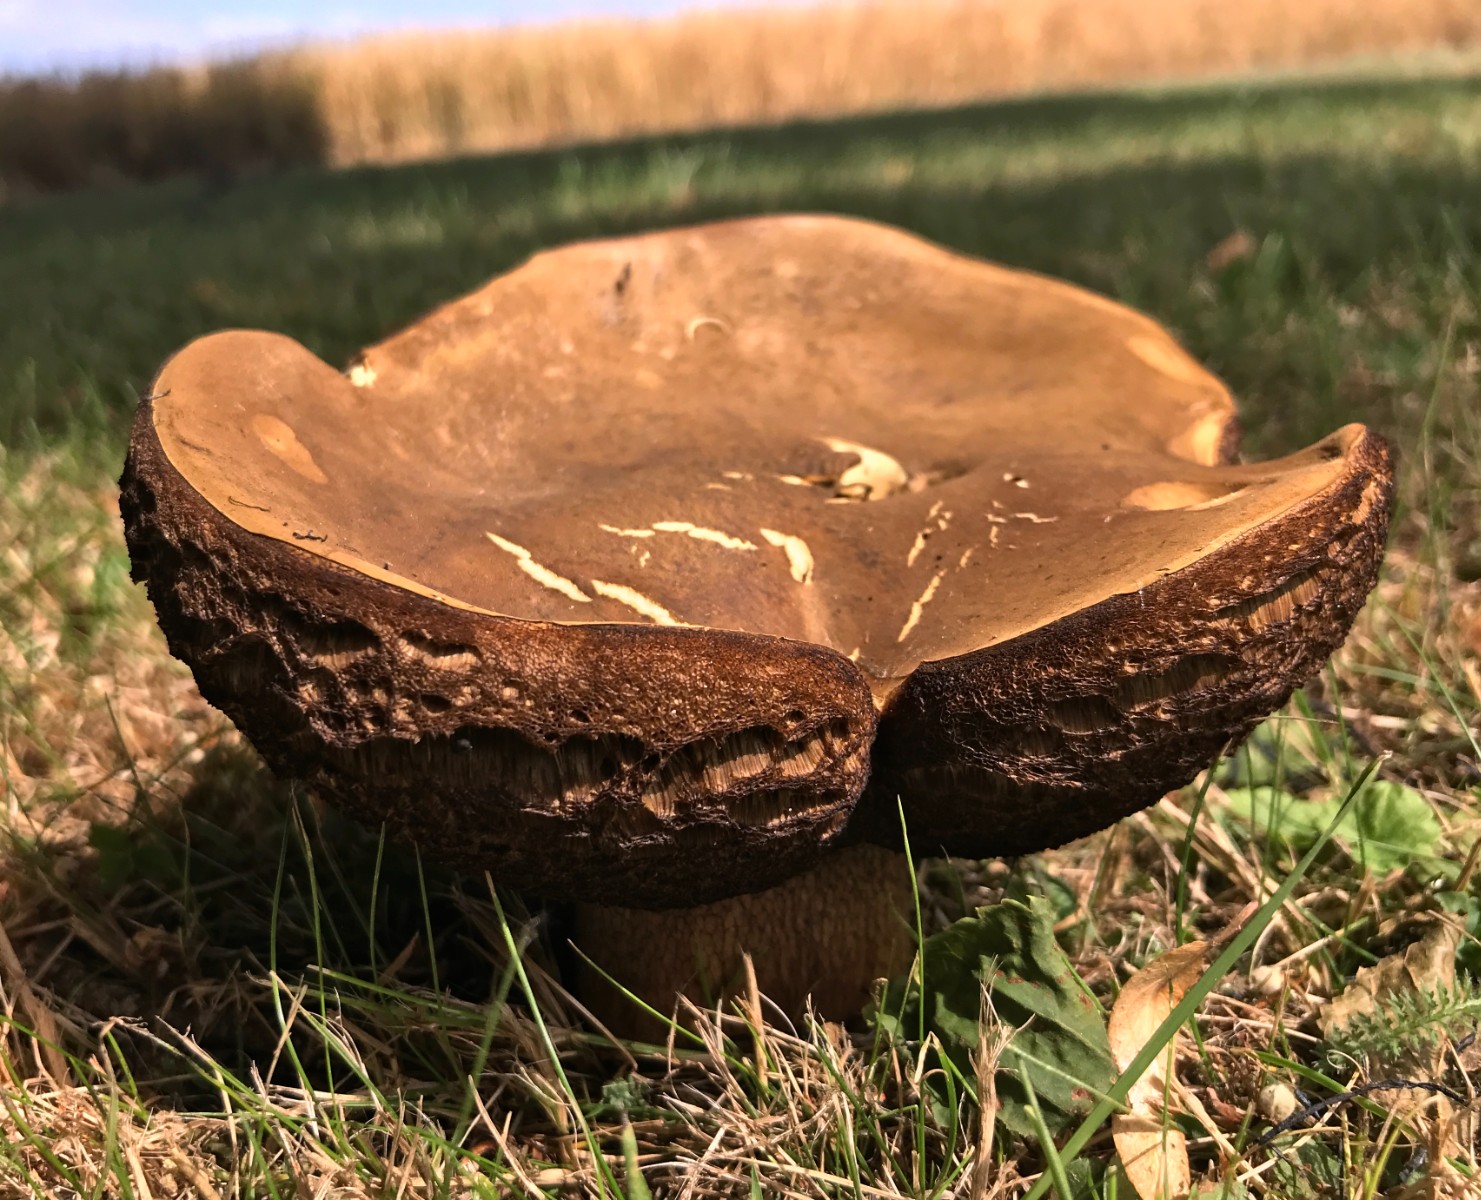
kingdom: Fungi
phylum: Basidiomycota
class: Agaricomycetes
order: Boletales
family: Boletaceae
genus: Suillellus
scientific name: Suillellus luridus
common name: netstokket indigorørhat
